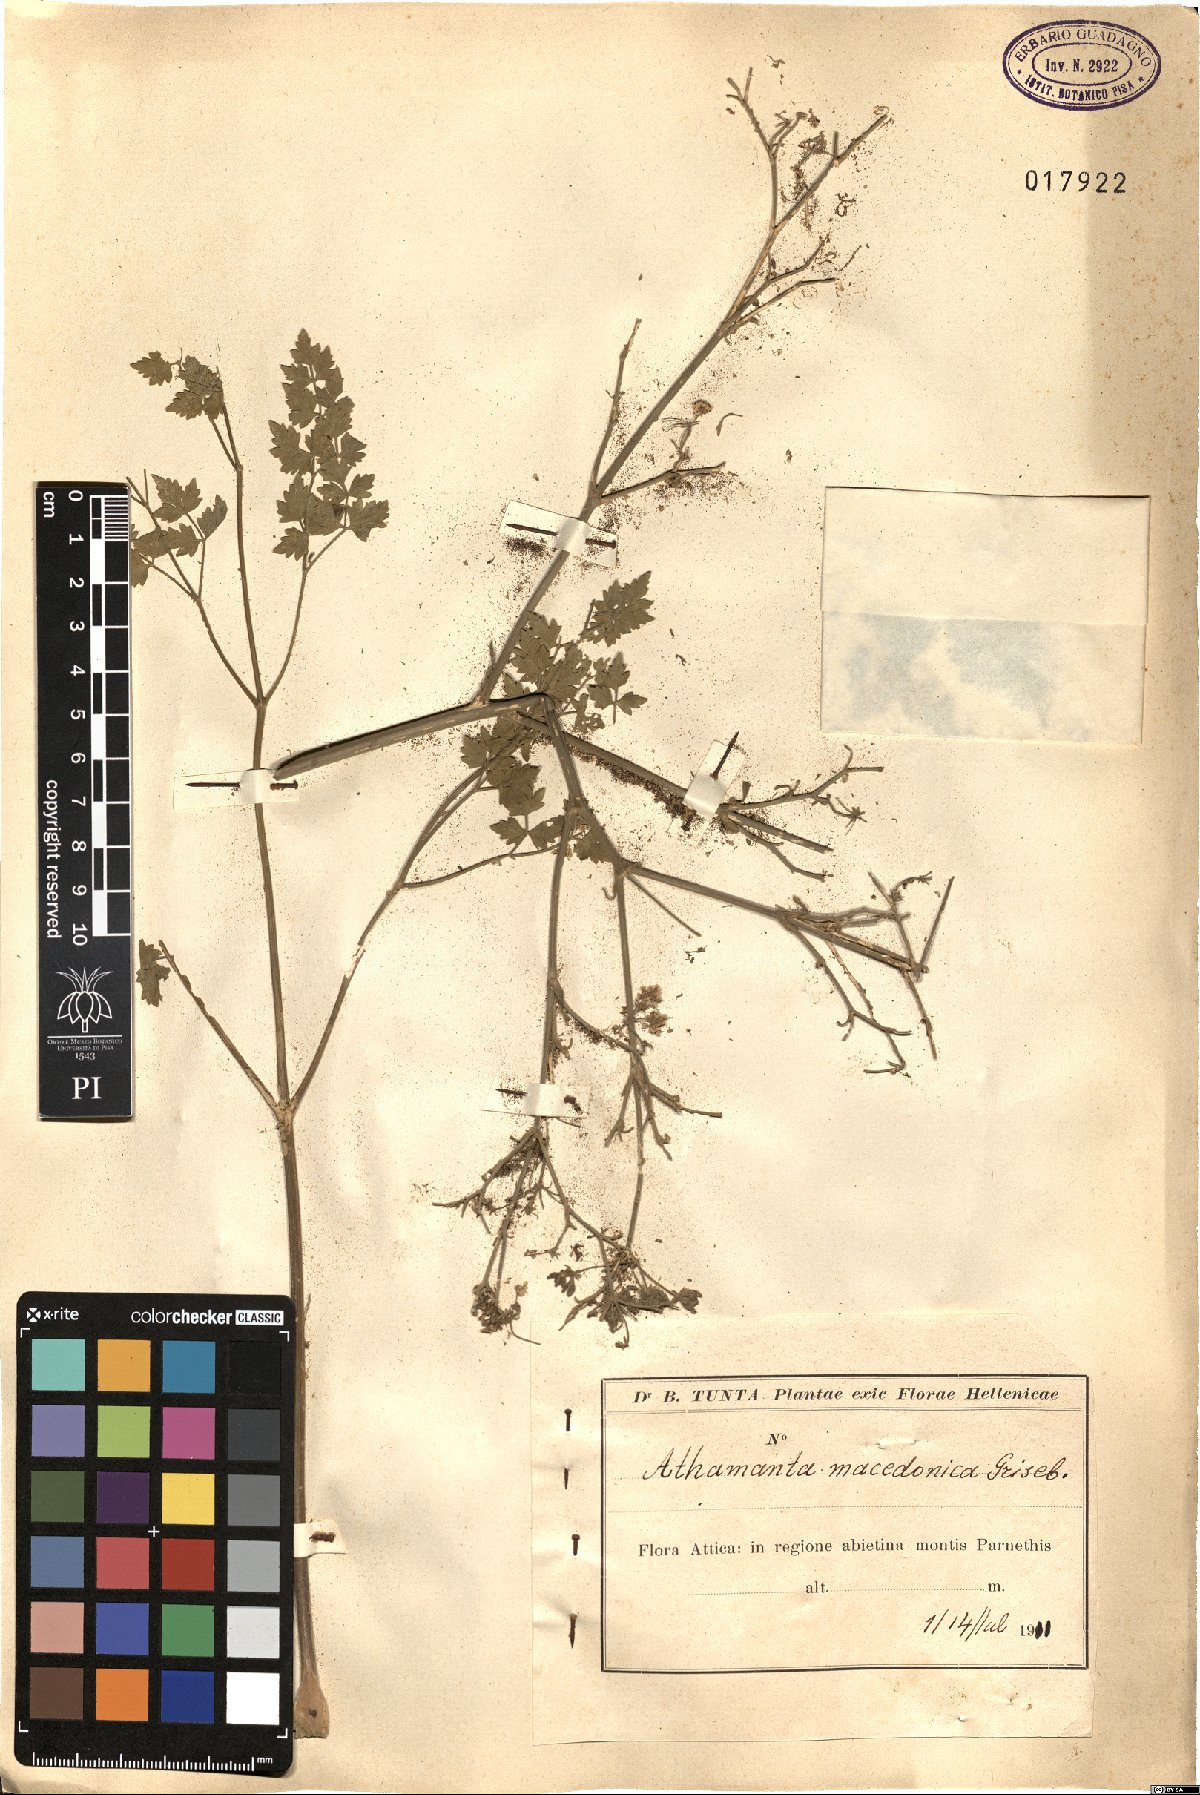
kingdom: Plantae
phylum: Tracheophyta
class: Magnoliopsida
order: Apiales
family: Apiaceae
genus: Bubon
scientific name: Bubon macedonicum
